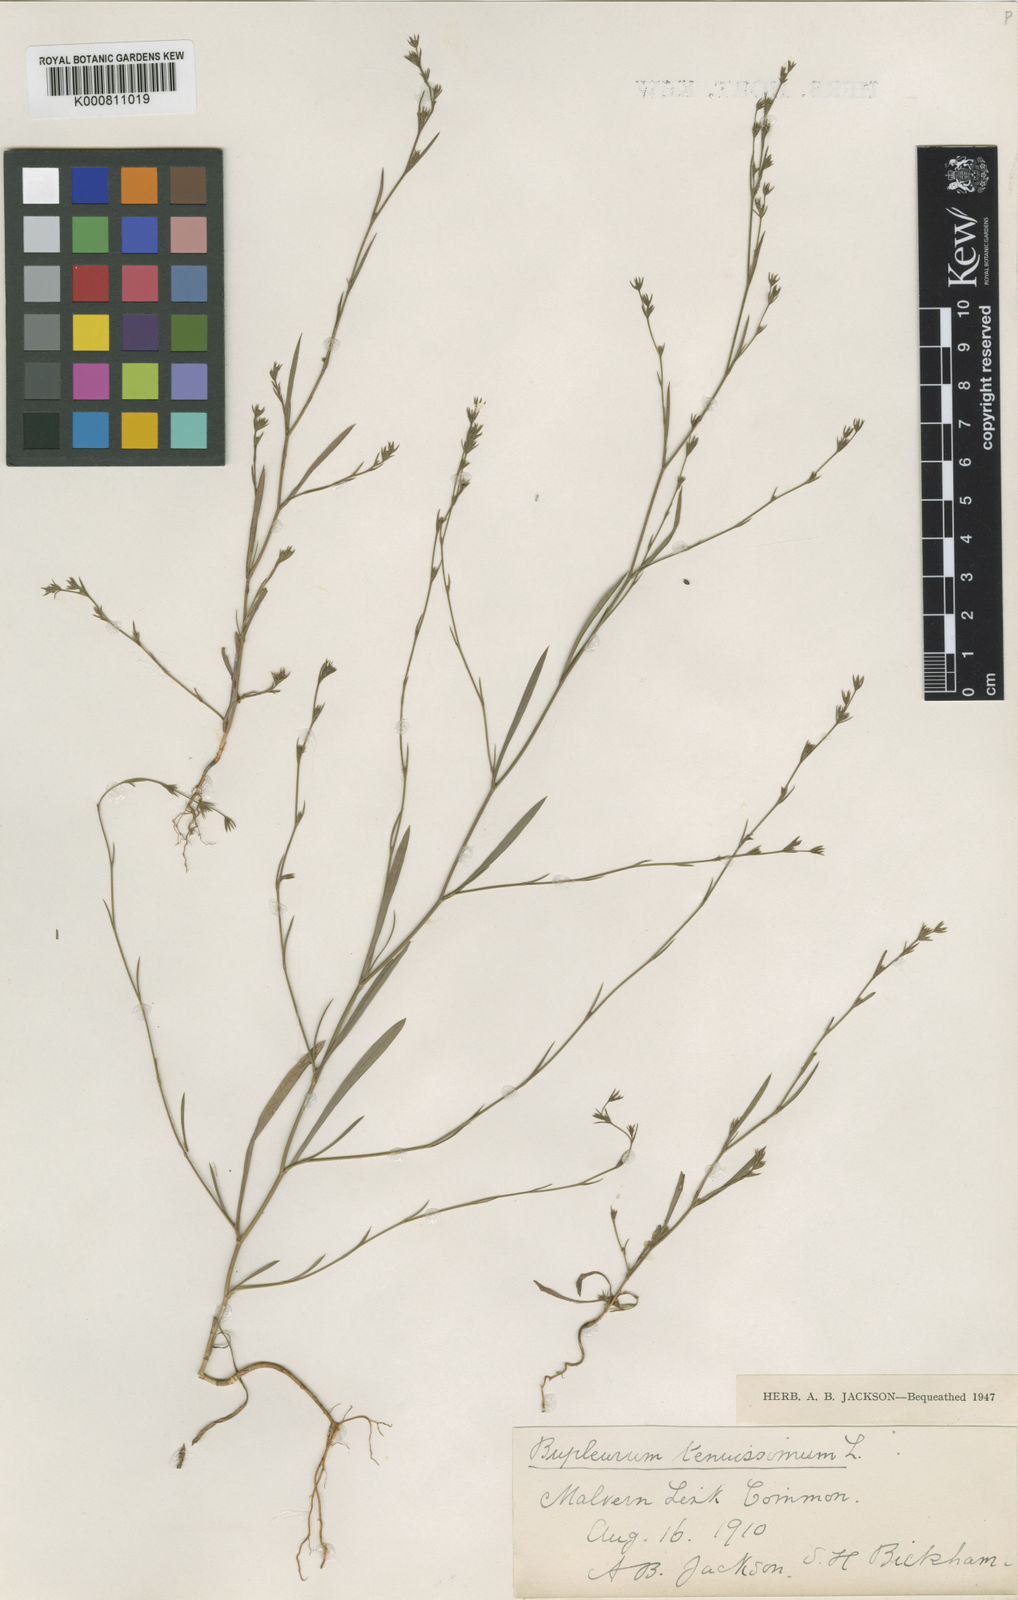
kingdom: Plantae
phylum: Tracheophyta
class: Magnoliopsida
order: Apiales
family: Apiaceae
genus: Bupleurum
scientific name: Bupleurum tenuissimum
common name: Slender hare's-ear
